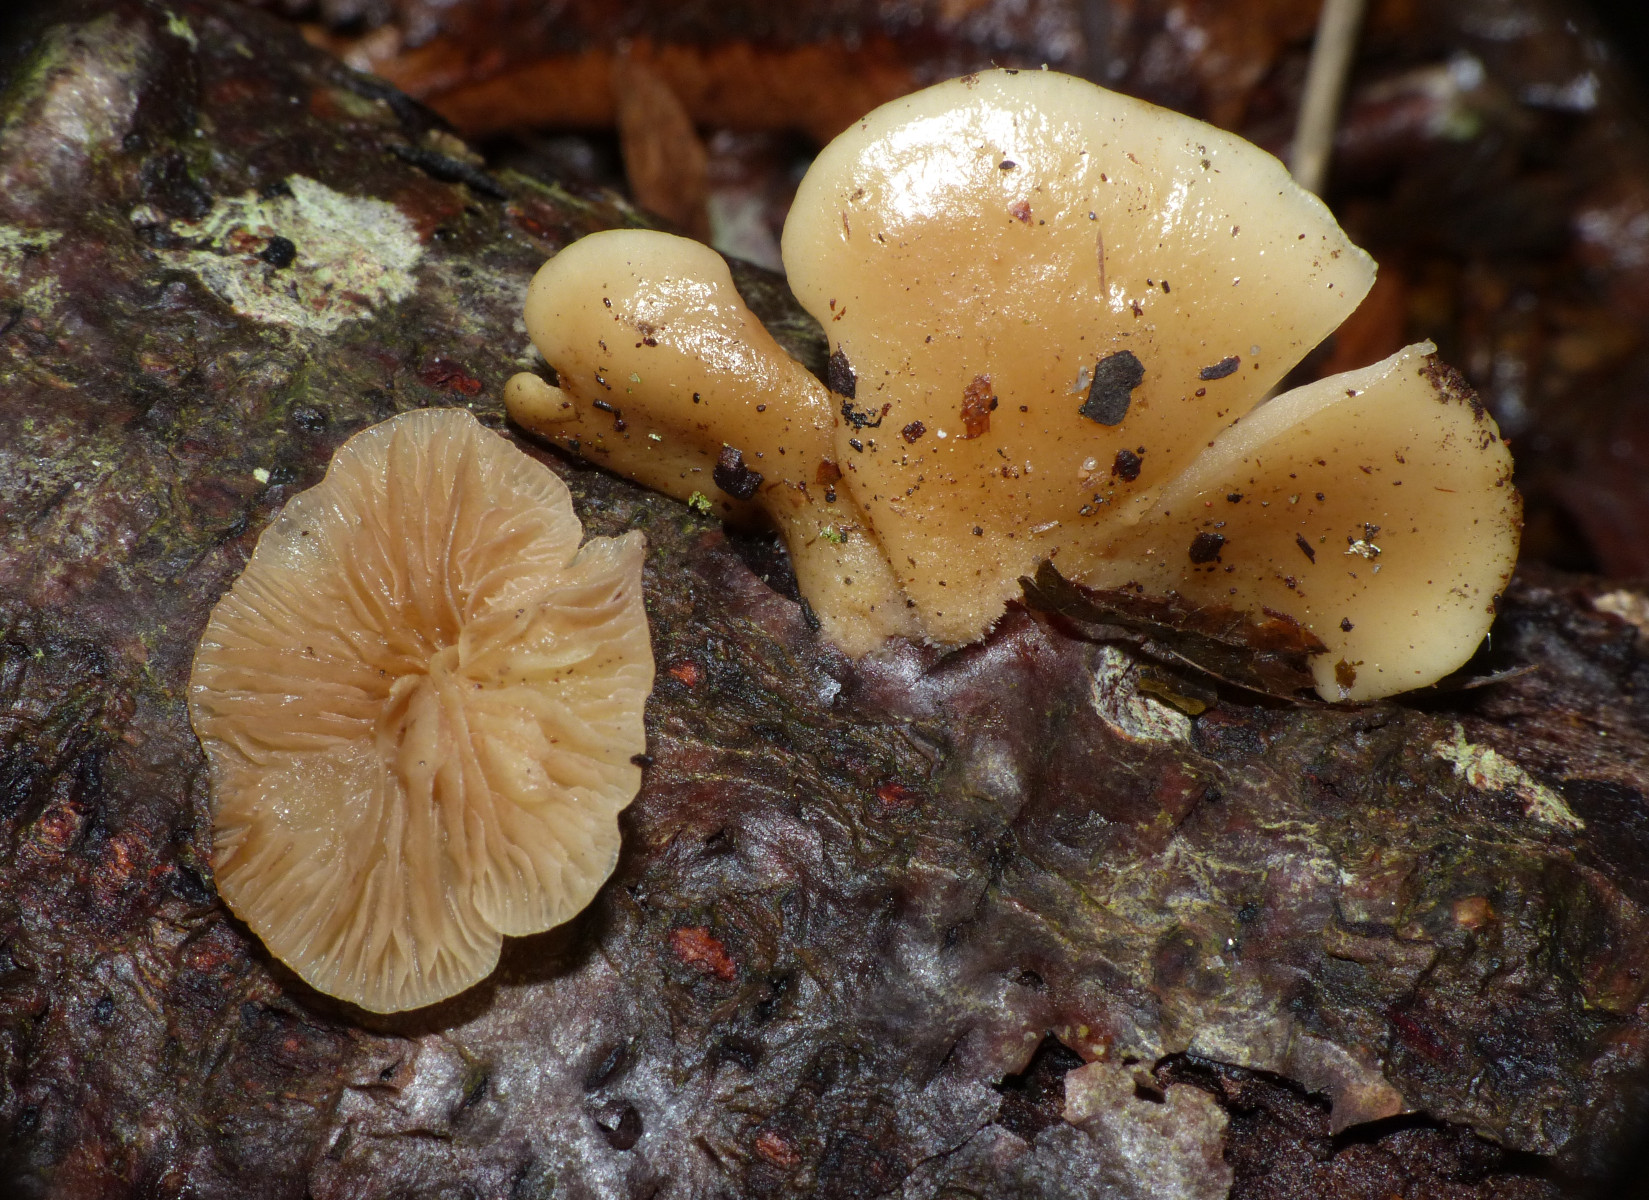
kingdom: Fungi
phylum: Basidiomycota
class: Agaricomycetes
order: Agaricales
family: Crepidotaceae
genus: Crepidotus
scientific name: Crepidotus mollis
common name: blød muslingesvamp
